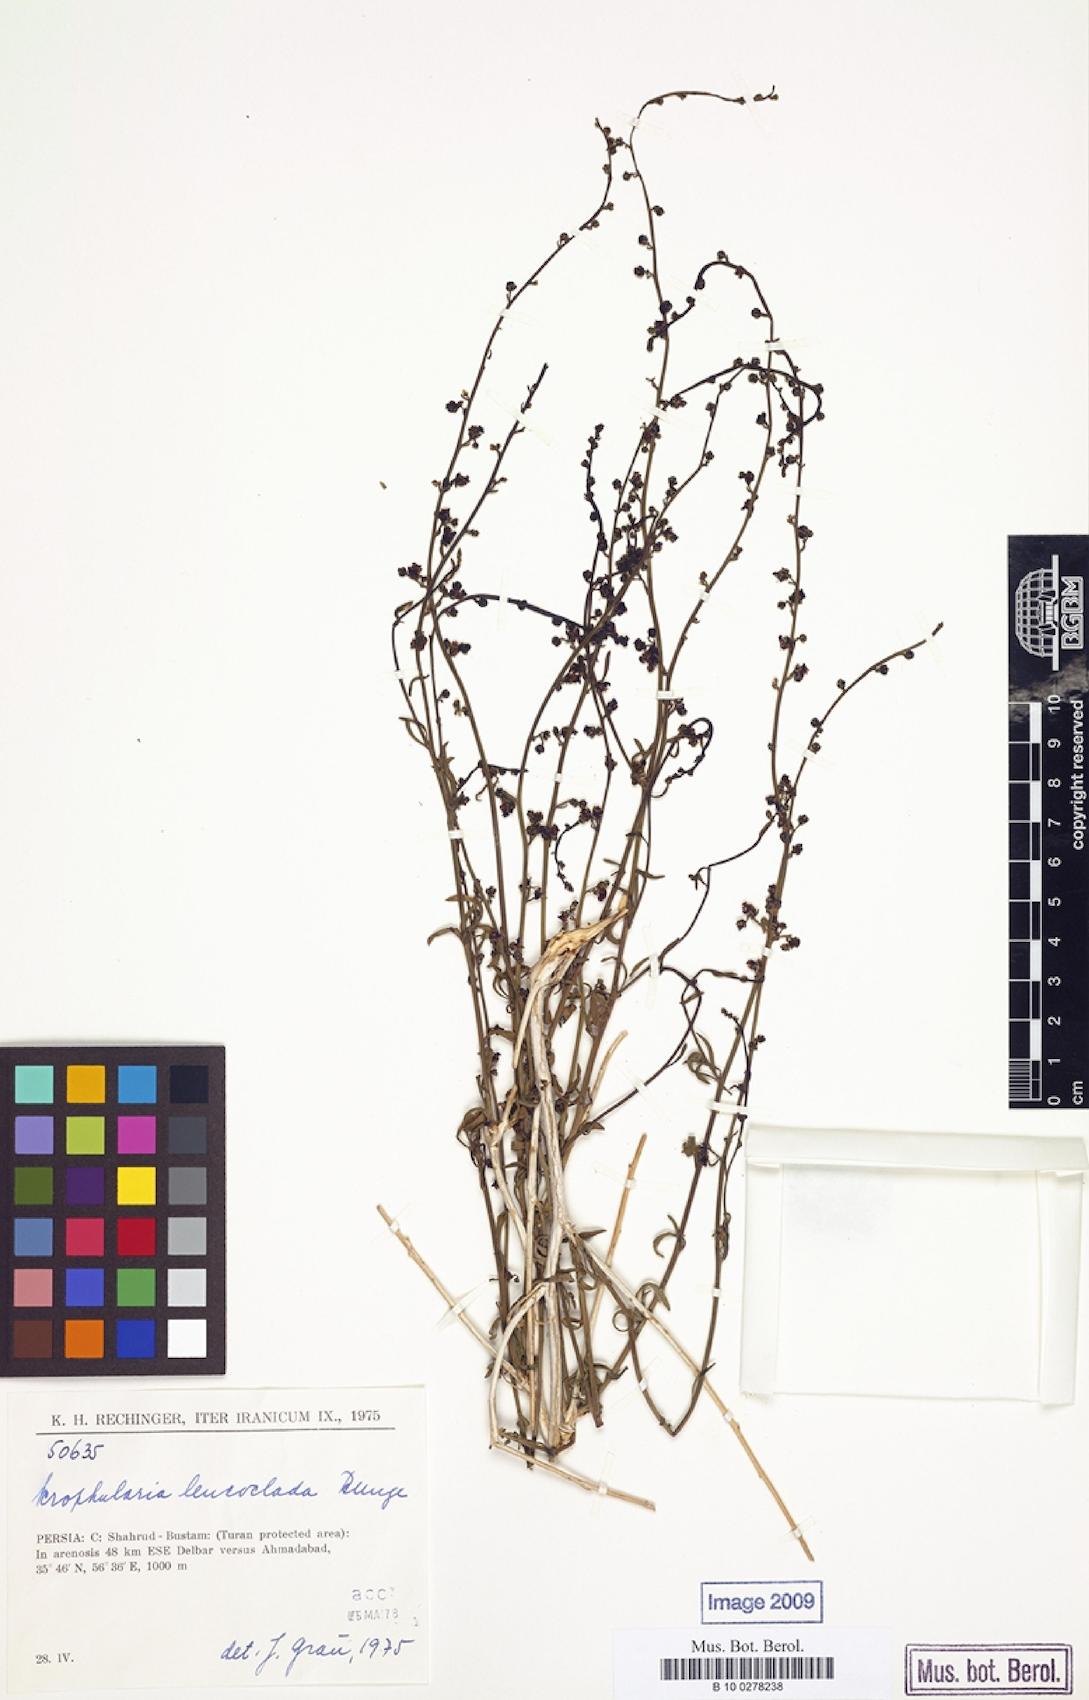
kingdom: Plantae
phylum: Tracheophyta
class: Magnoliopsida
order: Lamiales
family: Scrophulariaceae
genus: Scrophularia
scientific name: Scrophularia leucoclada
